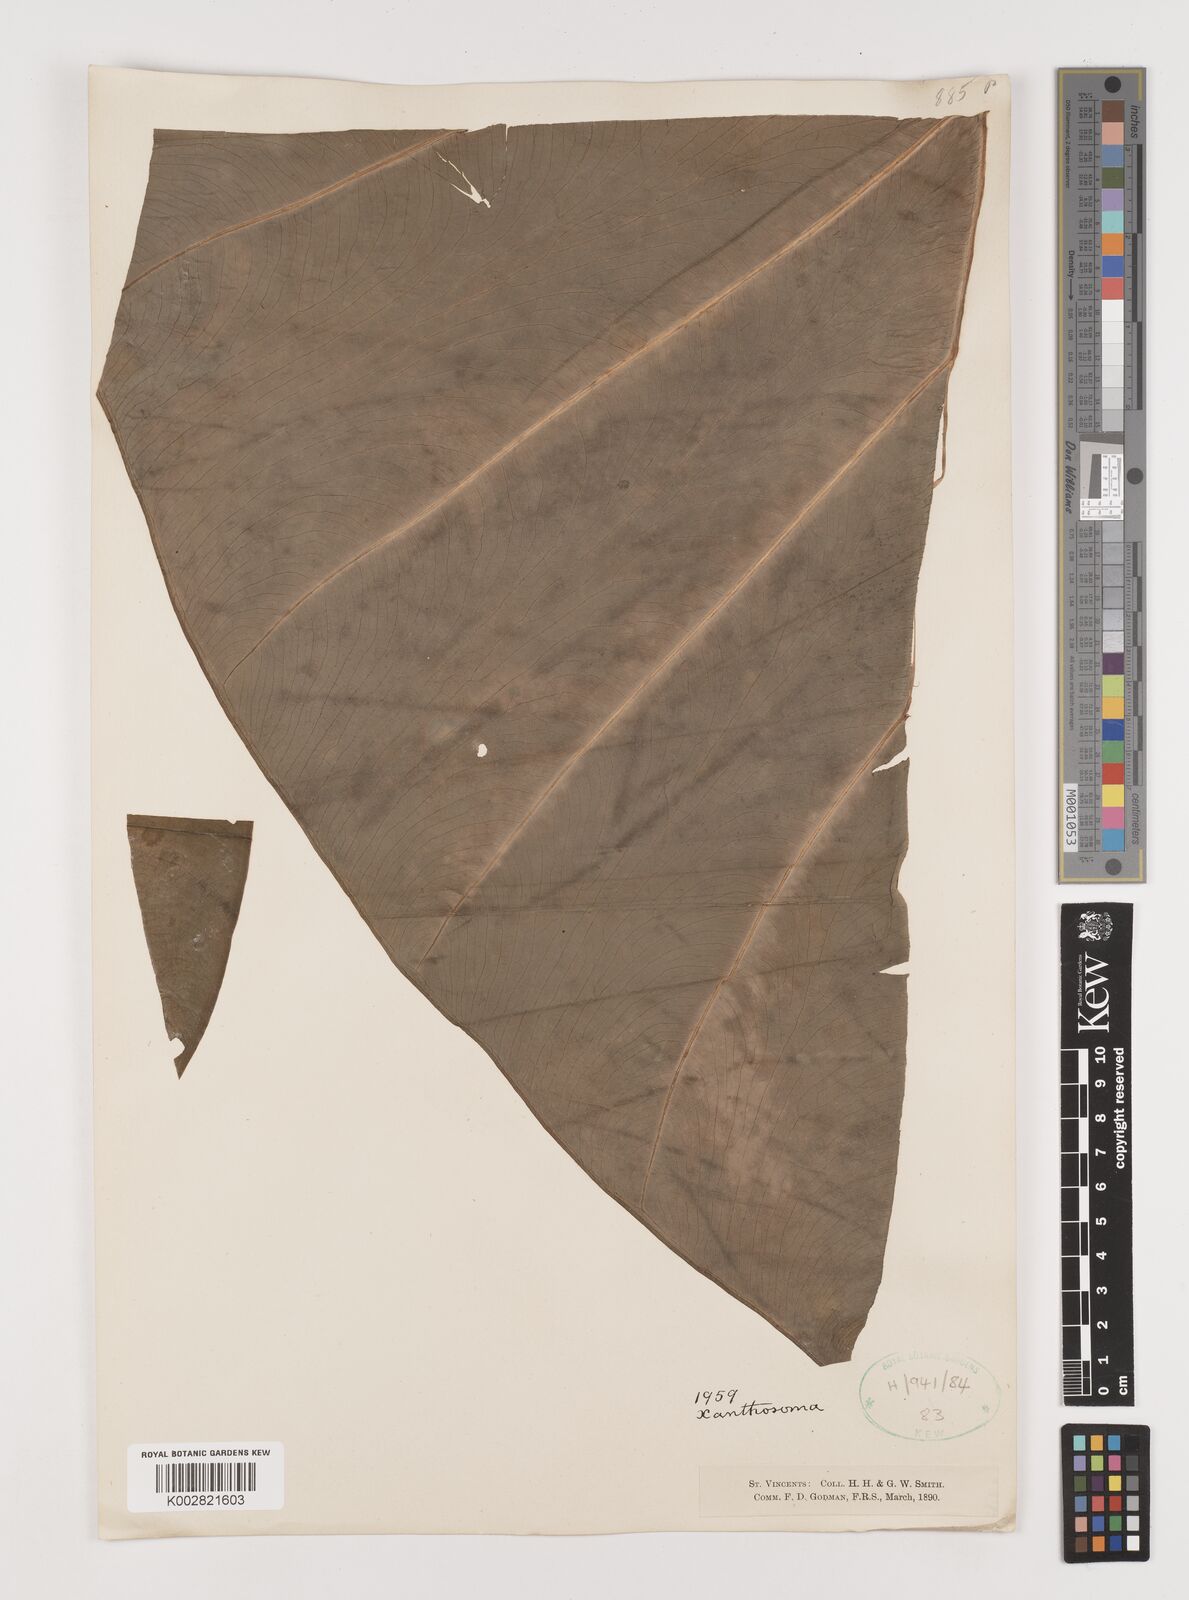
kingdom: Plantae
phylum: Tracheophyta
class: Liliopsida
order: Alismatales
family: Araceae
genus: Xanthosoma
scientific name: Xanthosoma sagittifolium
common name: Arrowleaf elephant's ear
